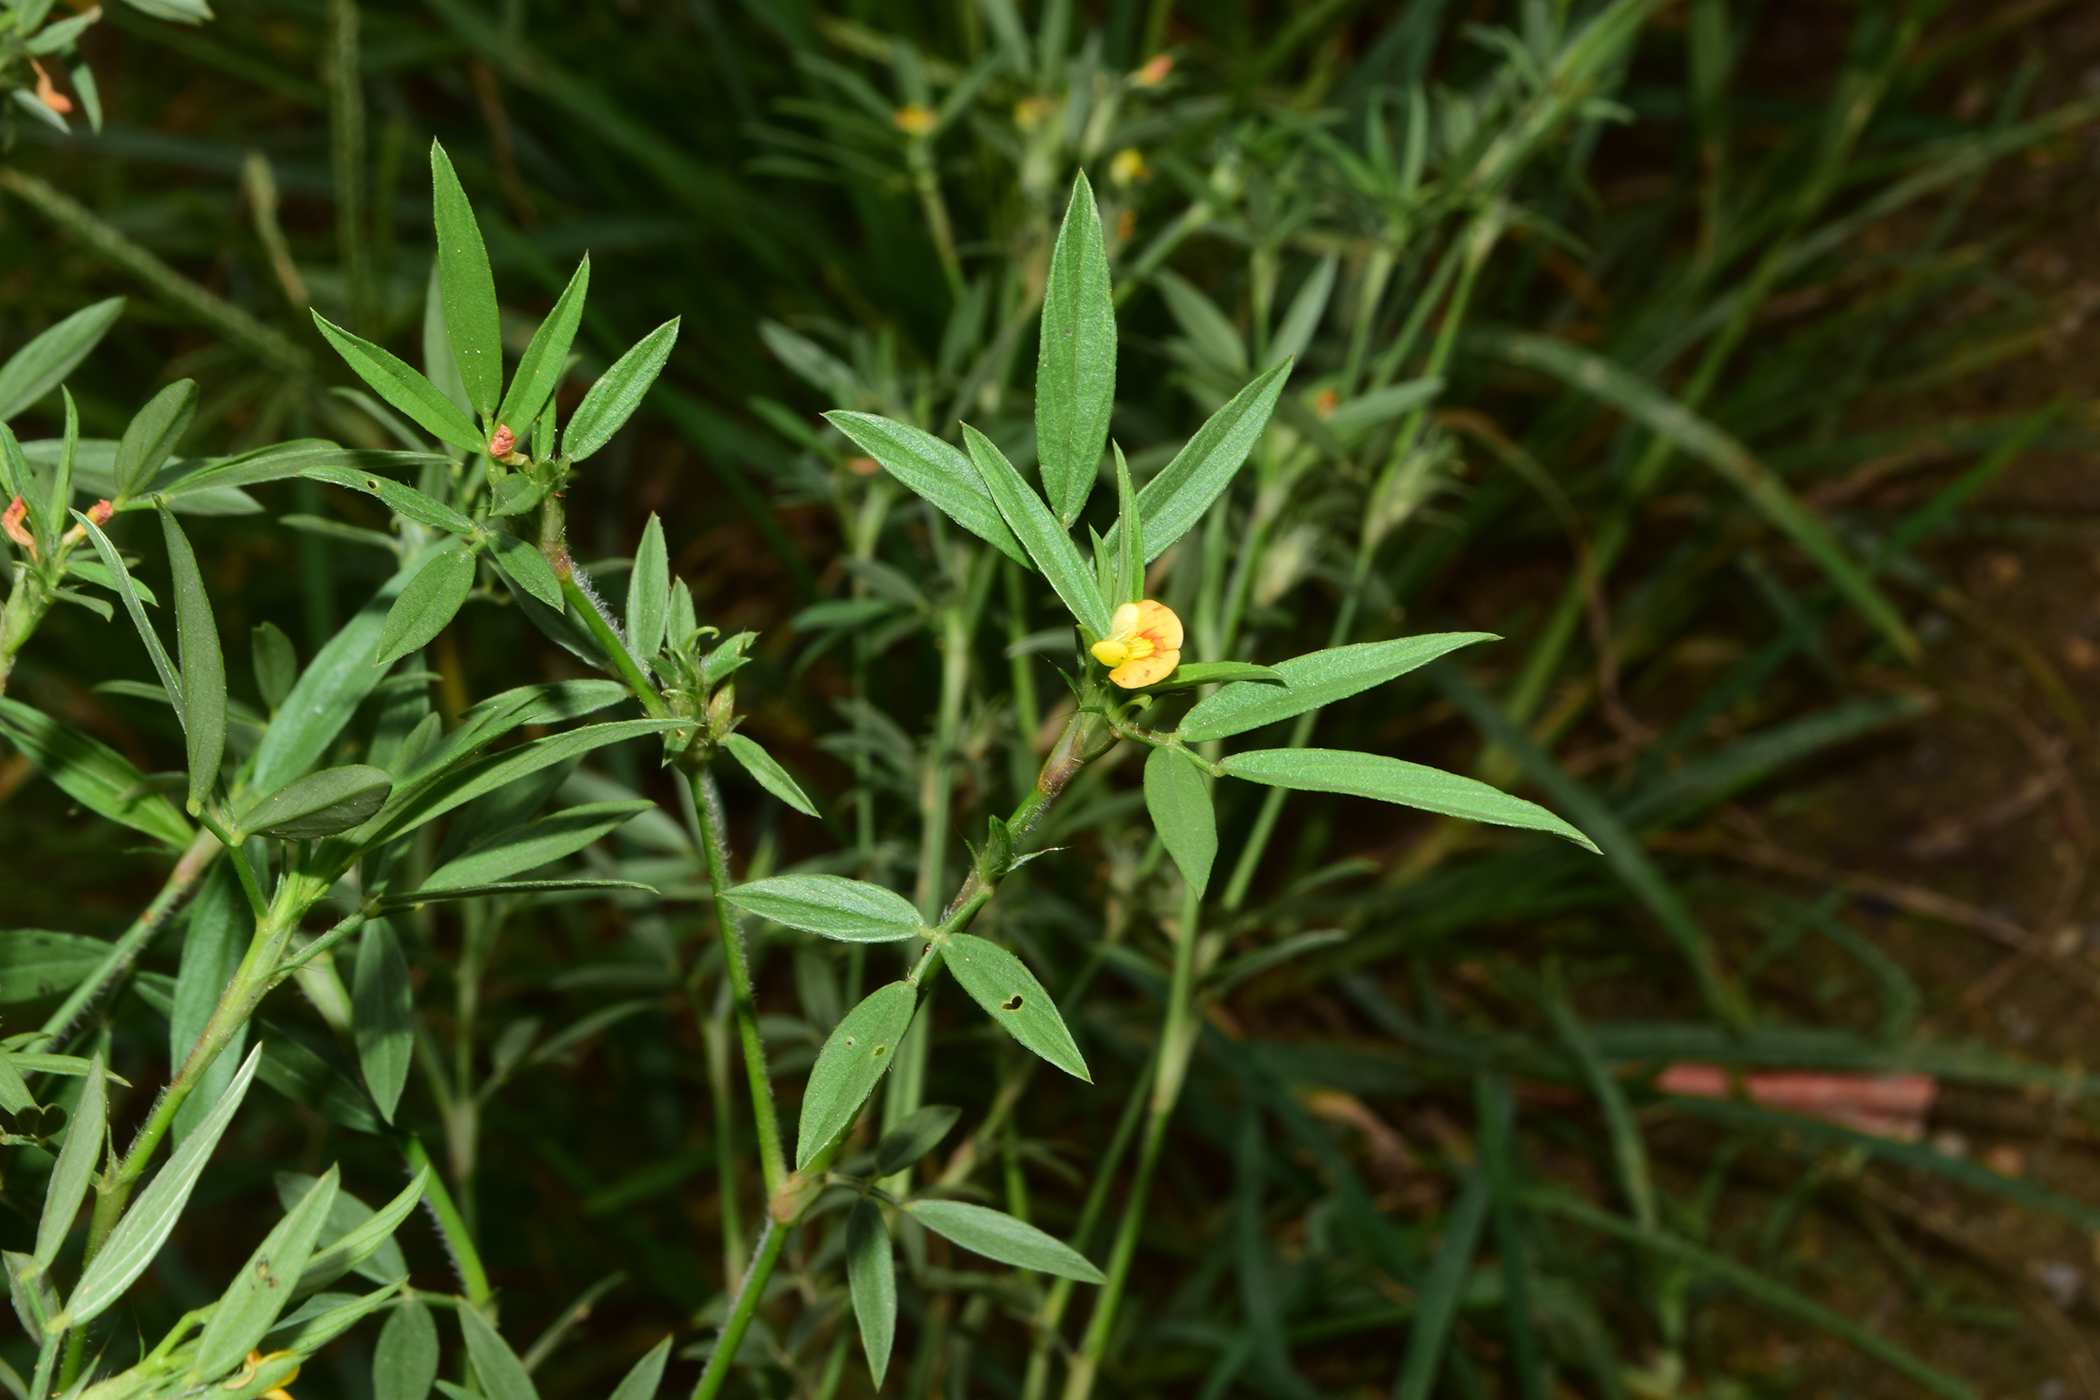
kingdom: Plantae
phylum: Tracheophyta
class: Magnoliopsida
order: Fabales
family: Fabaceae
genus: Stylosanthes
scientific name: Stylosanthes
